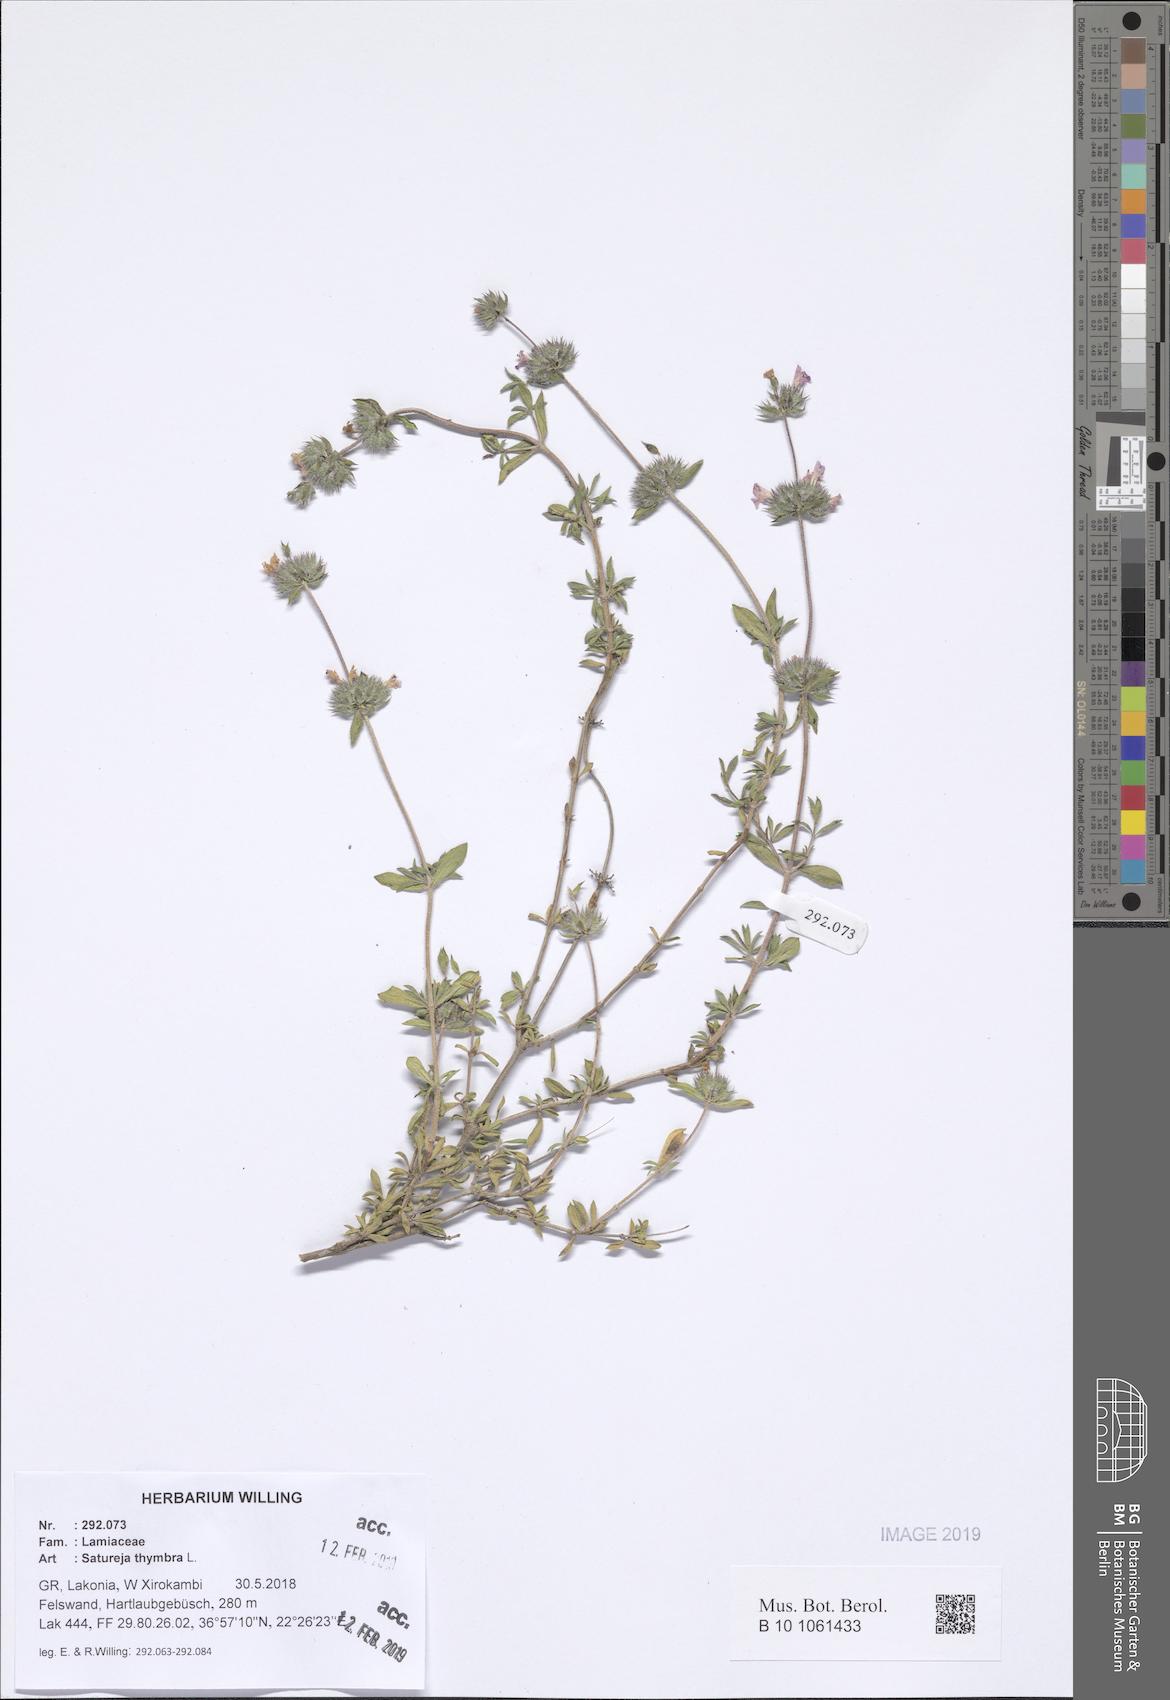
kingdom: Plantae
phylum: Tracheophyta
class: Magnoliopsida
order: Lamiales
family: Lamiaceae
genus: Satureja
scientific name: Satureja thymbra
